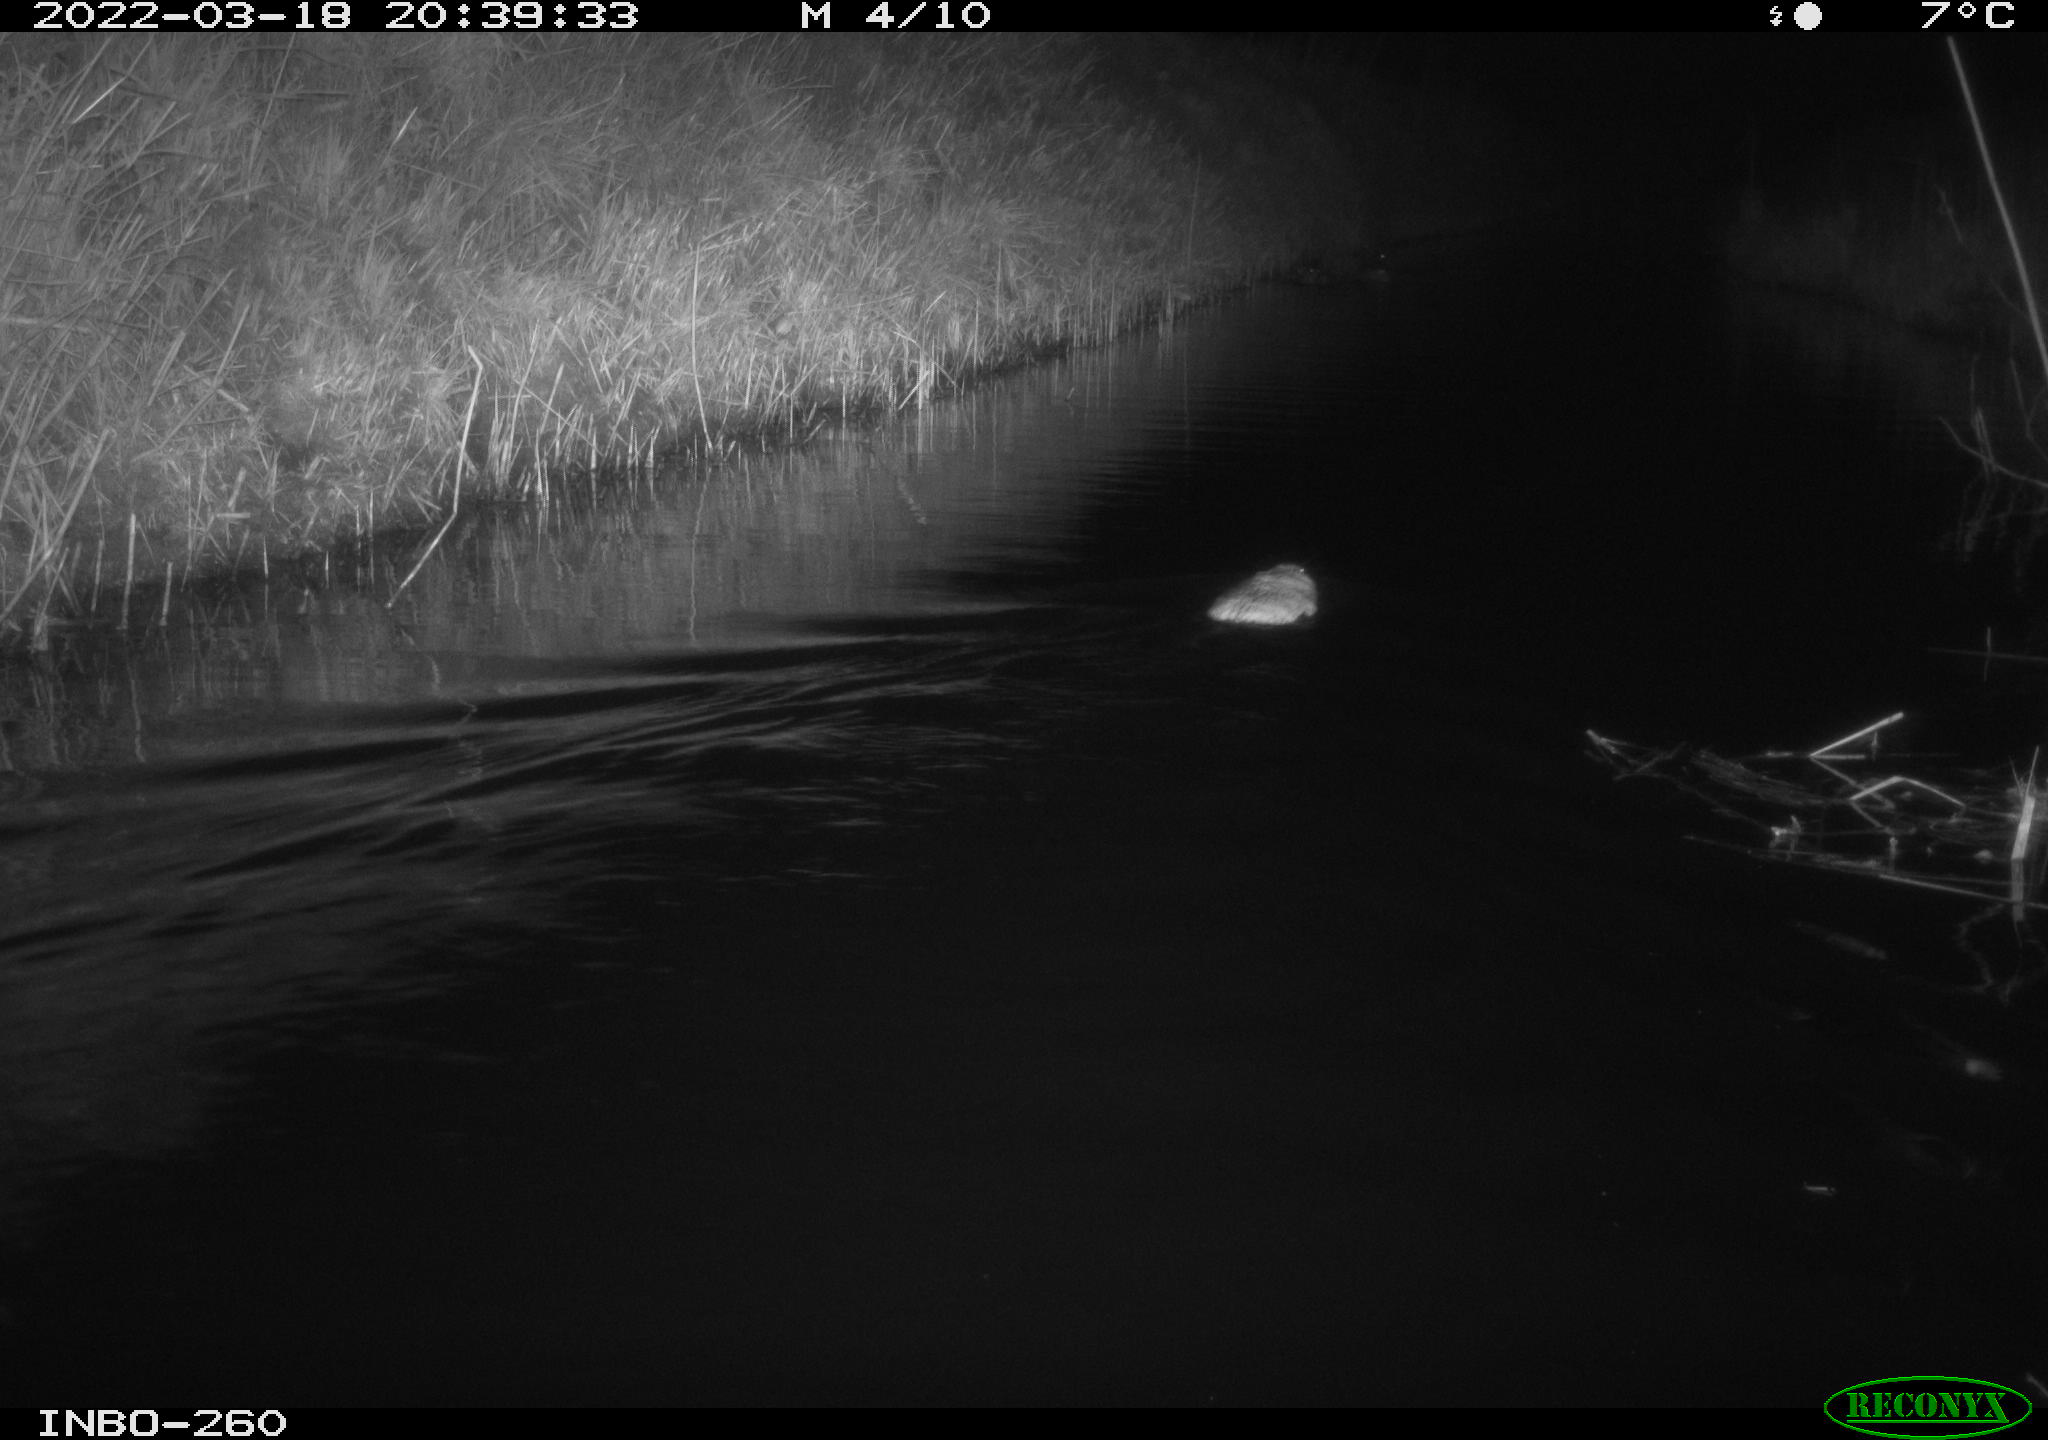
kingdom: Animalia
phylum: Chordata
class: Aves
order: Anseriformes
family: Anatidae
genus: Anas
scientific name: Anas platyrhynchos
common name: Mallard
